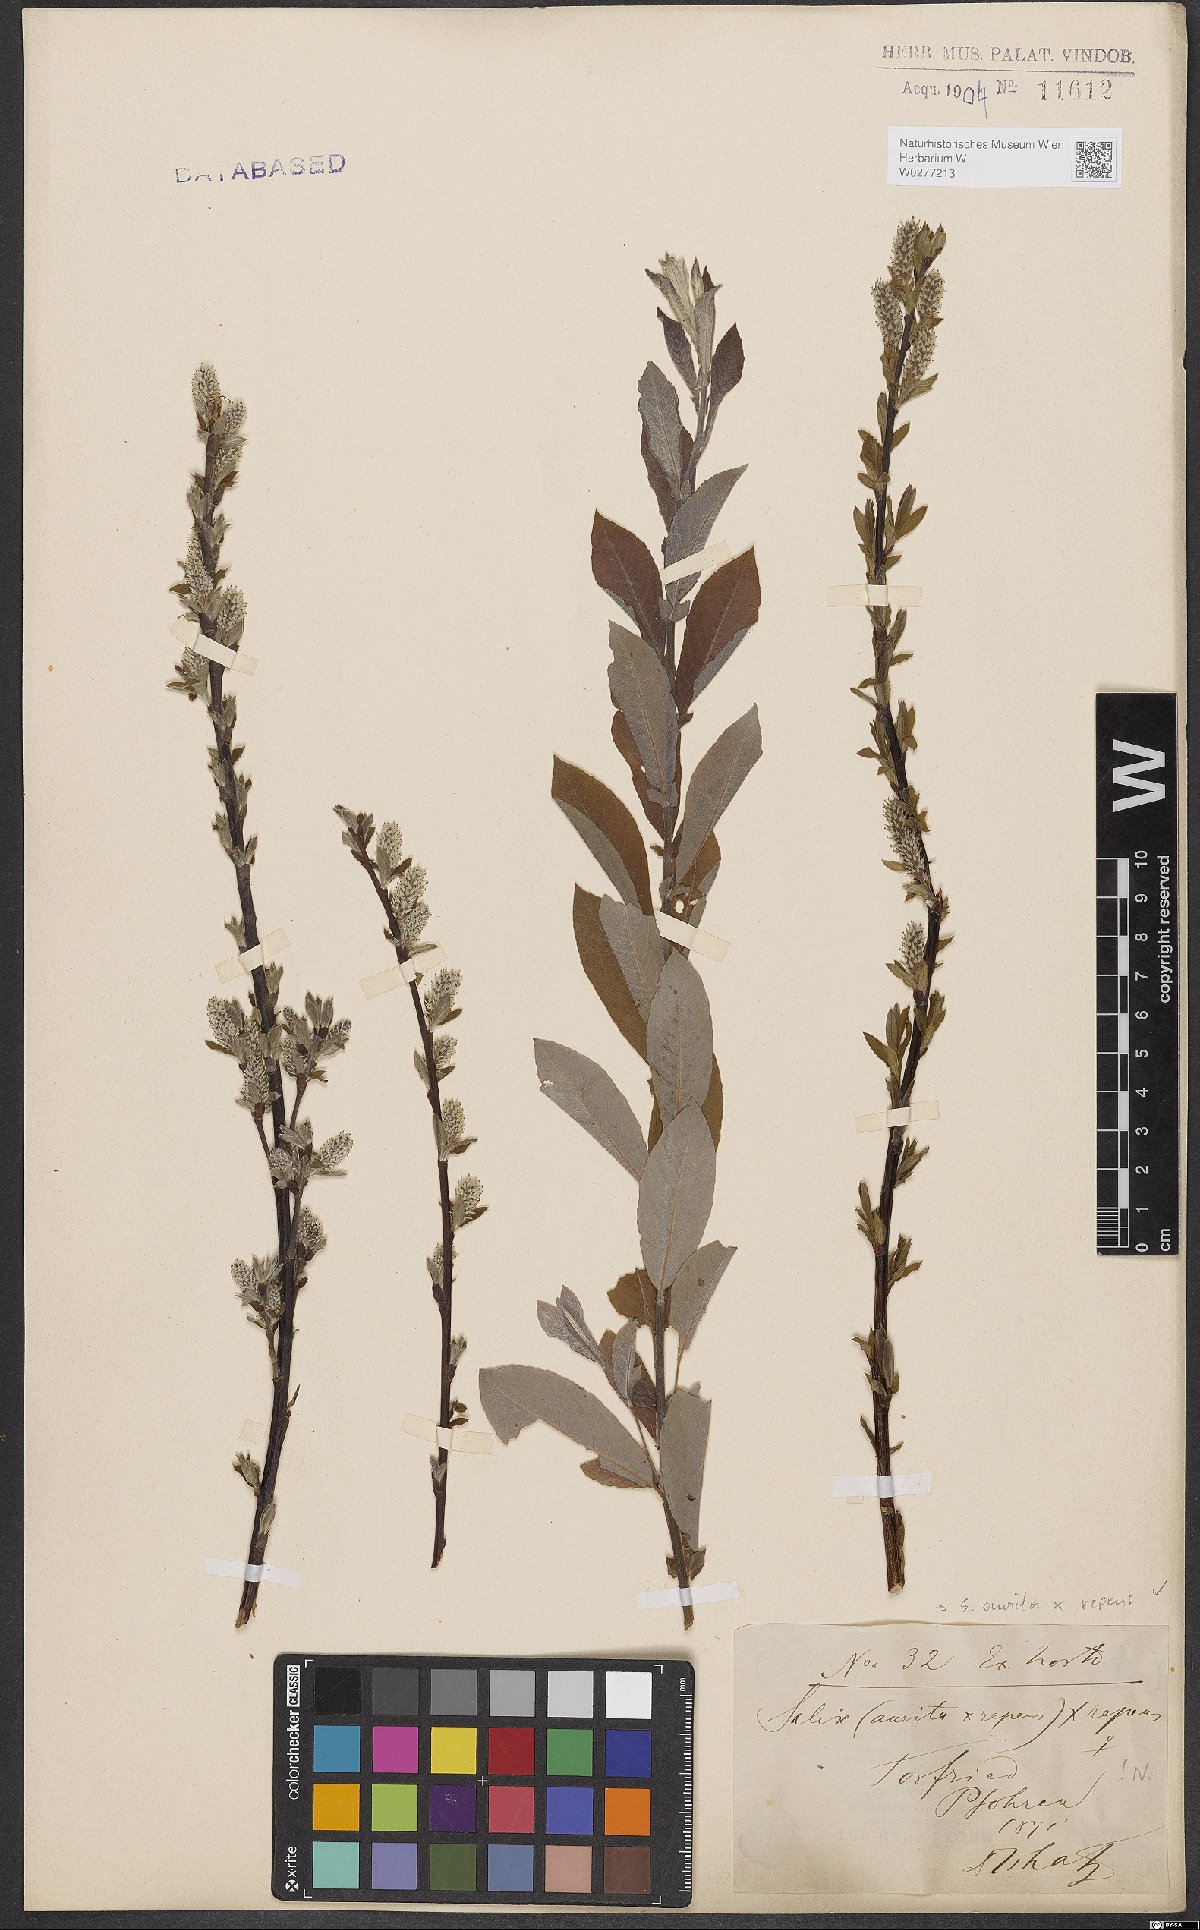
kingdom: Plantae
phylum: Tracheophyta
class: Magnoliopsida
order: Malpighiales
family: Salicaceae
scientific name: Salicaceae
